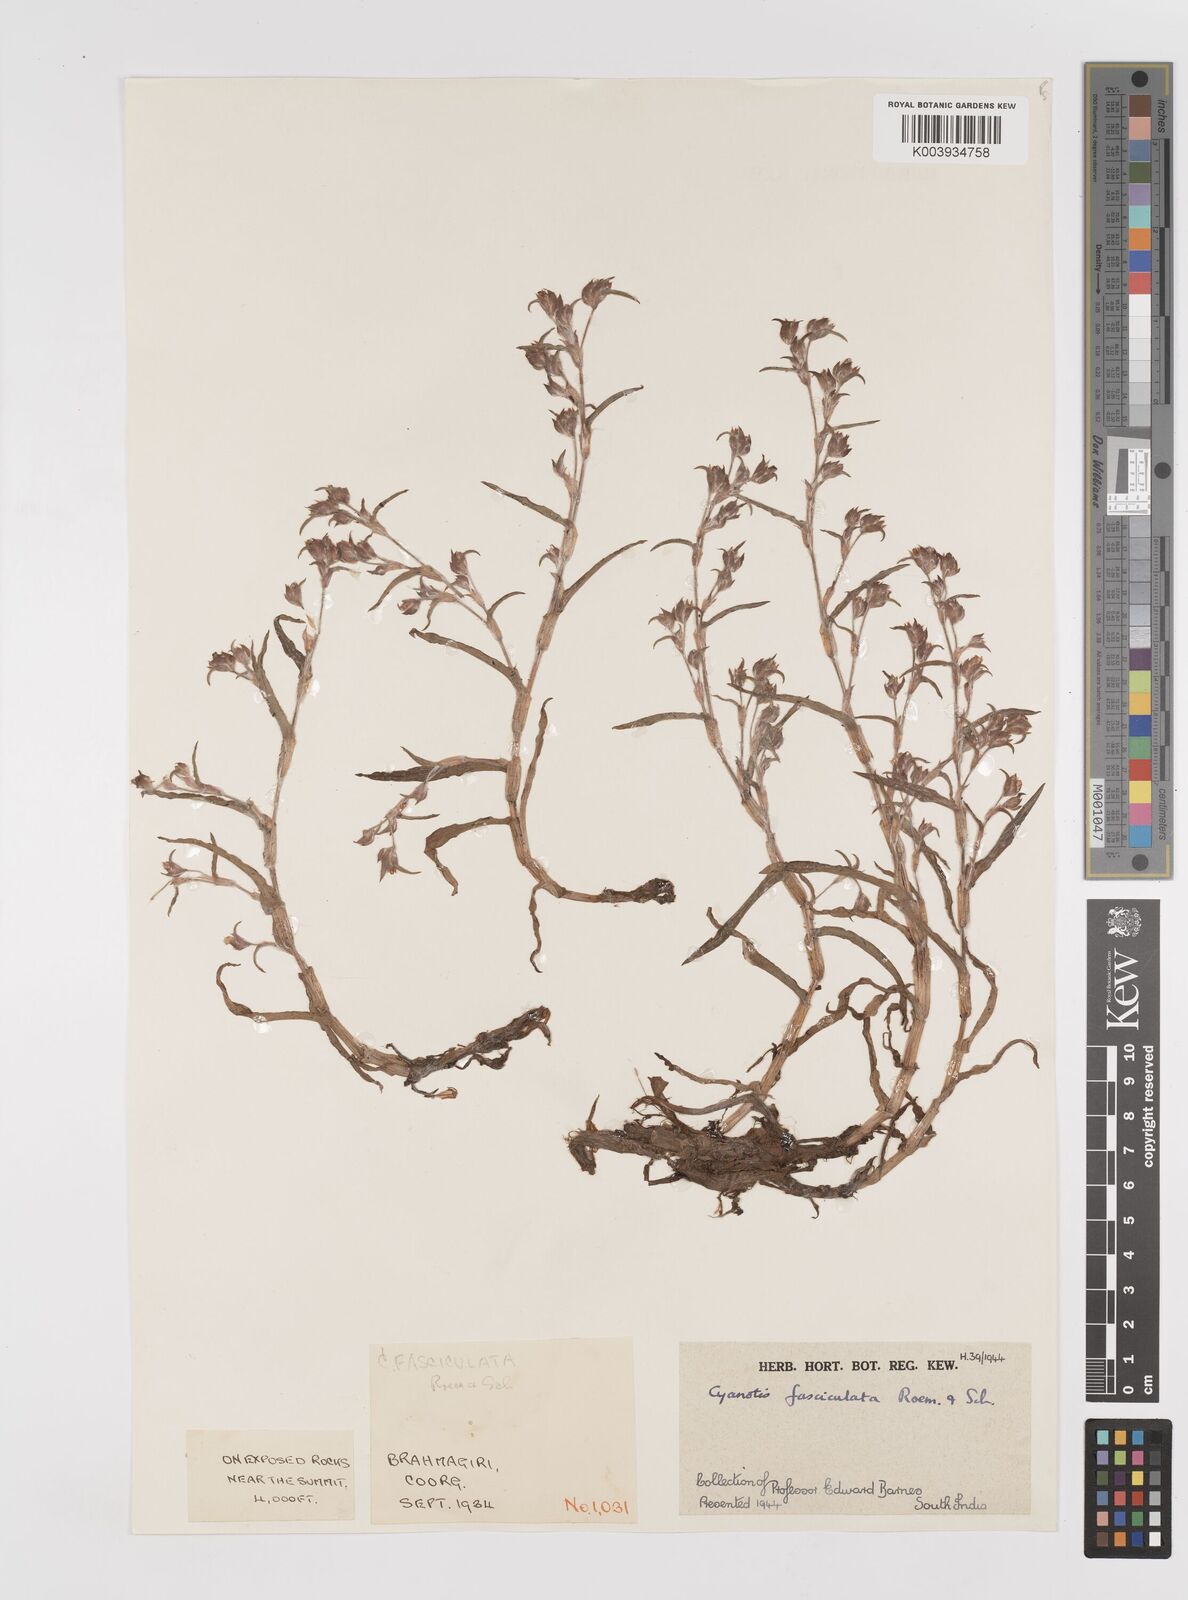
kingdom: Plantae
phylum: Tracheophyta
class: Liliopsida
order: Commelinales
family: Commelinaceae
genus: Cyanotis
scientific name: Cyanotis fasciculata
